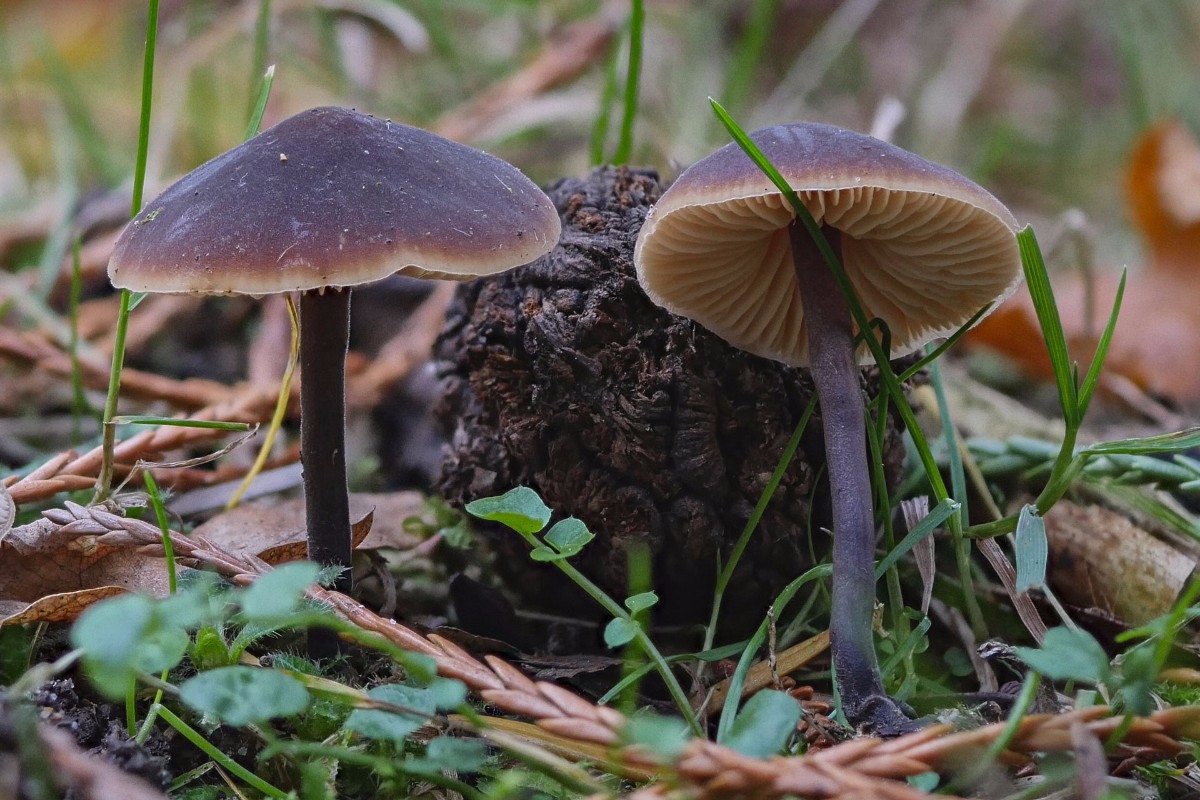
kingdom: Fungi
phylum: Basidiomycota
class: Agaricomycetes
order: Agaricales
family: Macrocystidiaceae
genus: Macrocystidia
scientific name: Macrocystidia cucumis
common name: agurkehat
